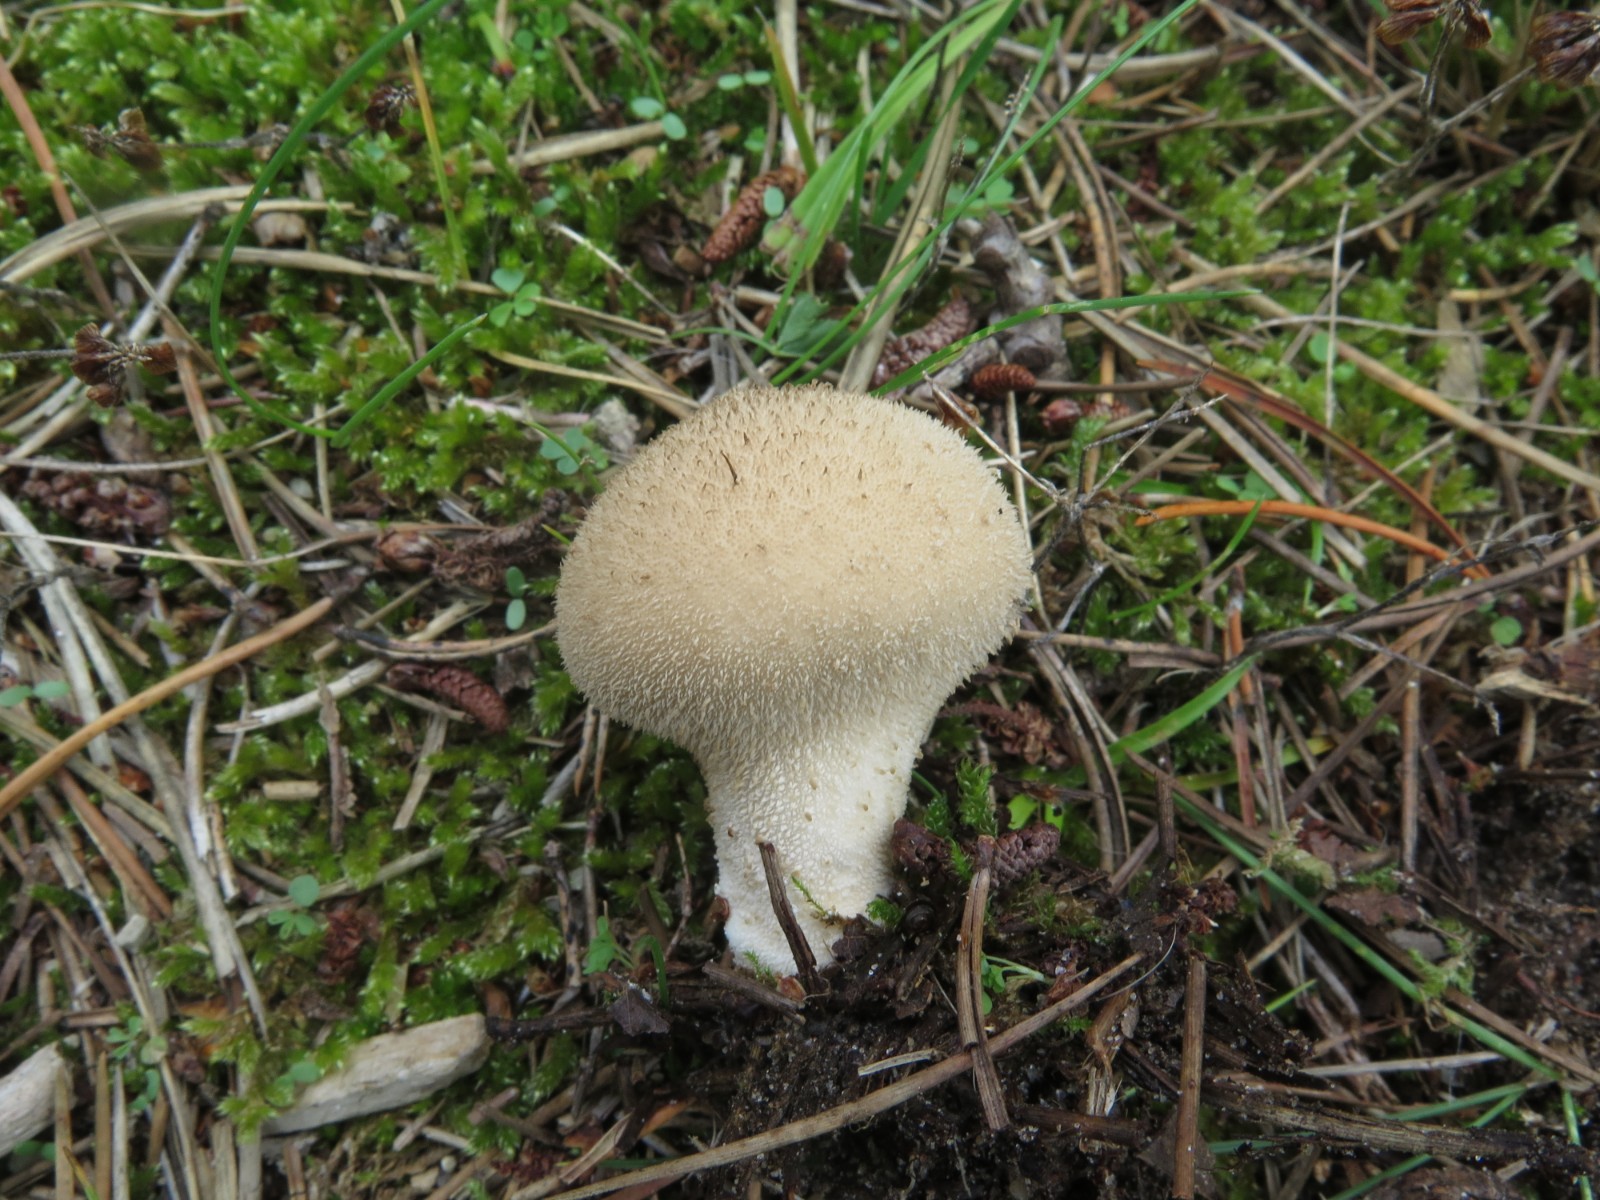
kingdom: Fungi
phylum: Basidiomycota
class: Agaricomycetes
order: Agaricales
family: Lycoperdaceae
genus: Lycoperdon
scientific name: Lycoperdon nigrescens
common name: sortagtig støvbold
